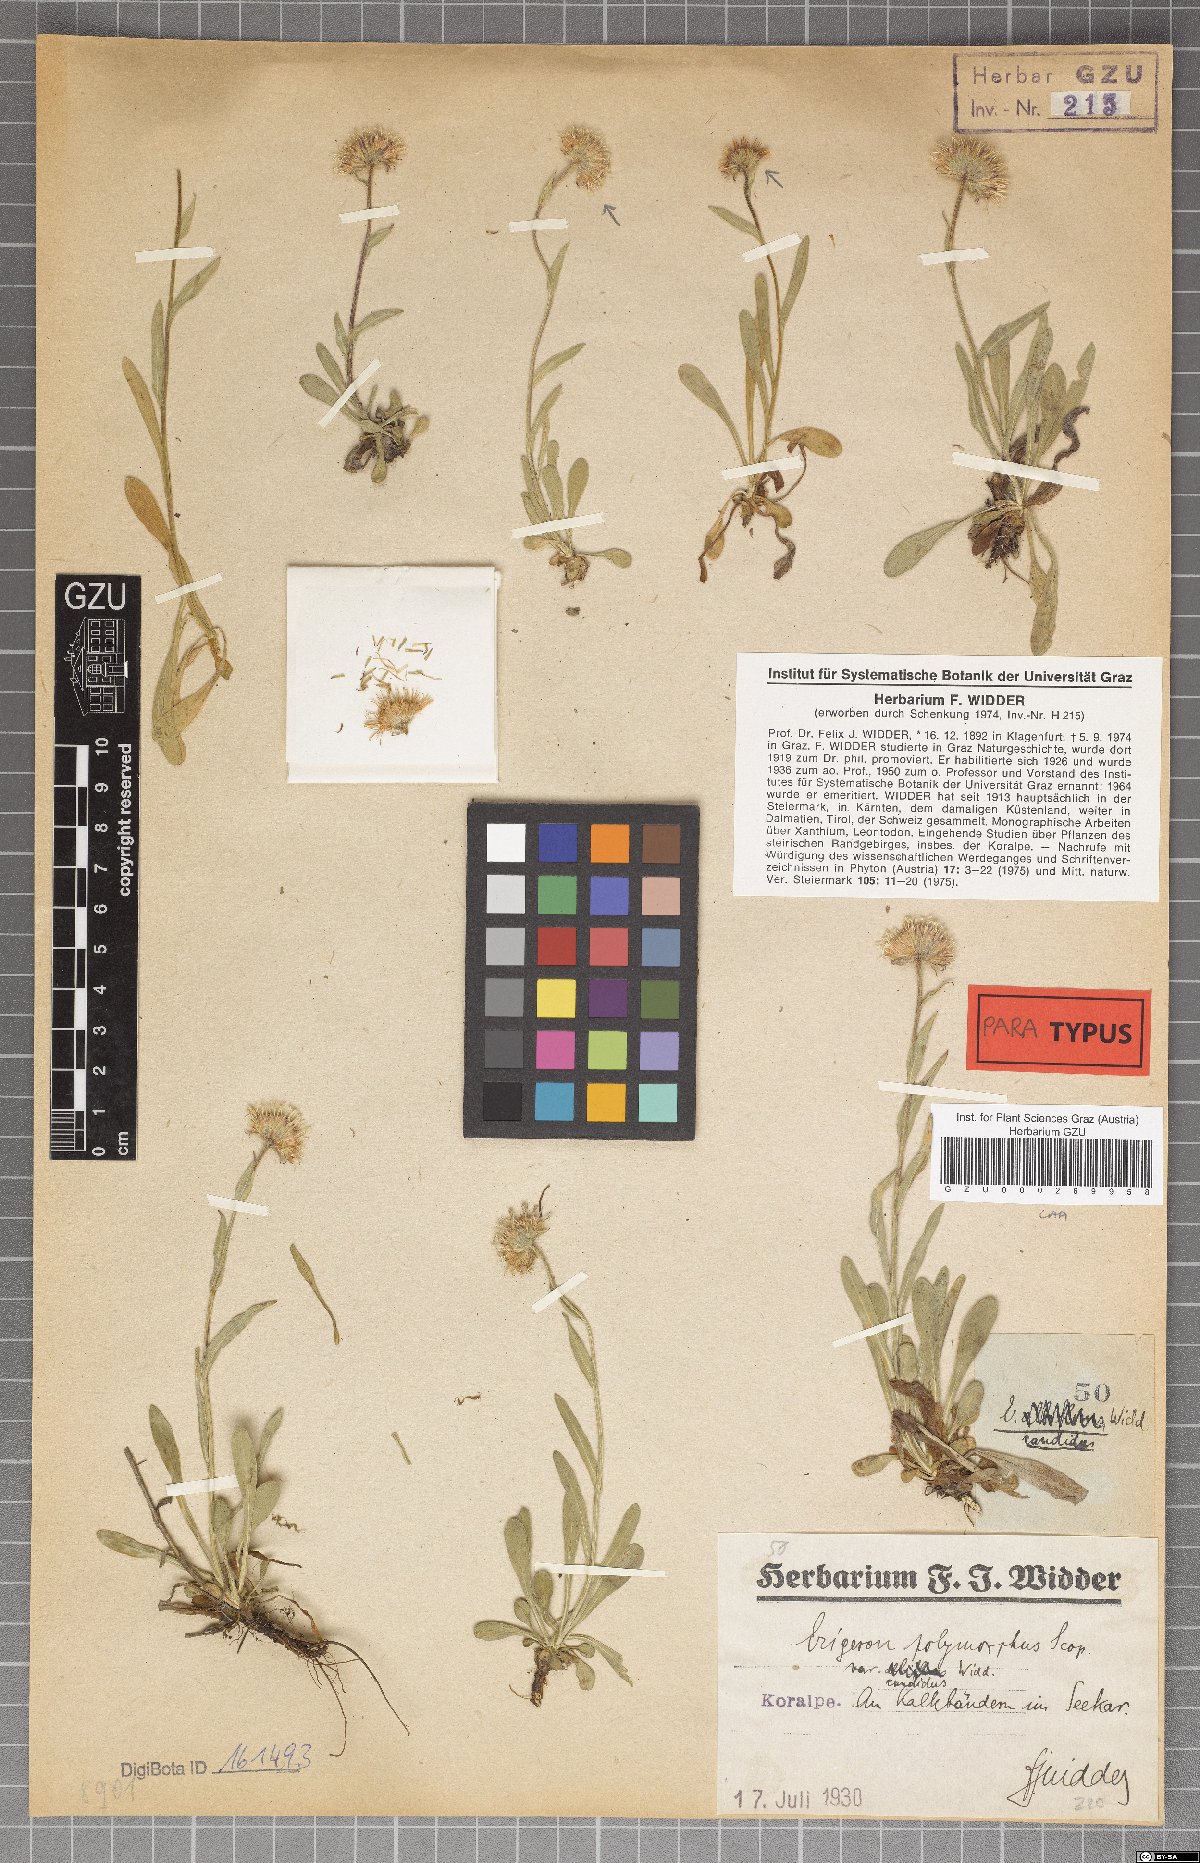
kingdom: Plantae
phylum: Tracheophyta
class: Magnoliopsida
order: Asterales
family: Asteraceae
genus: Erigeron
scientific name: Erigeron glabratus
